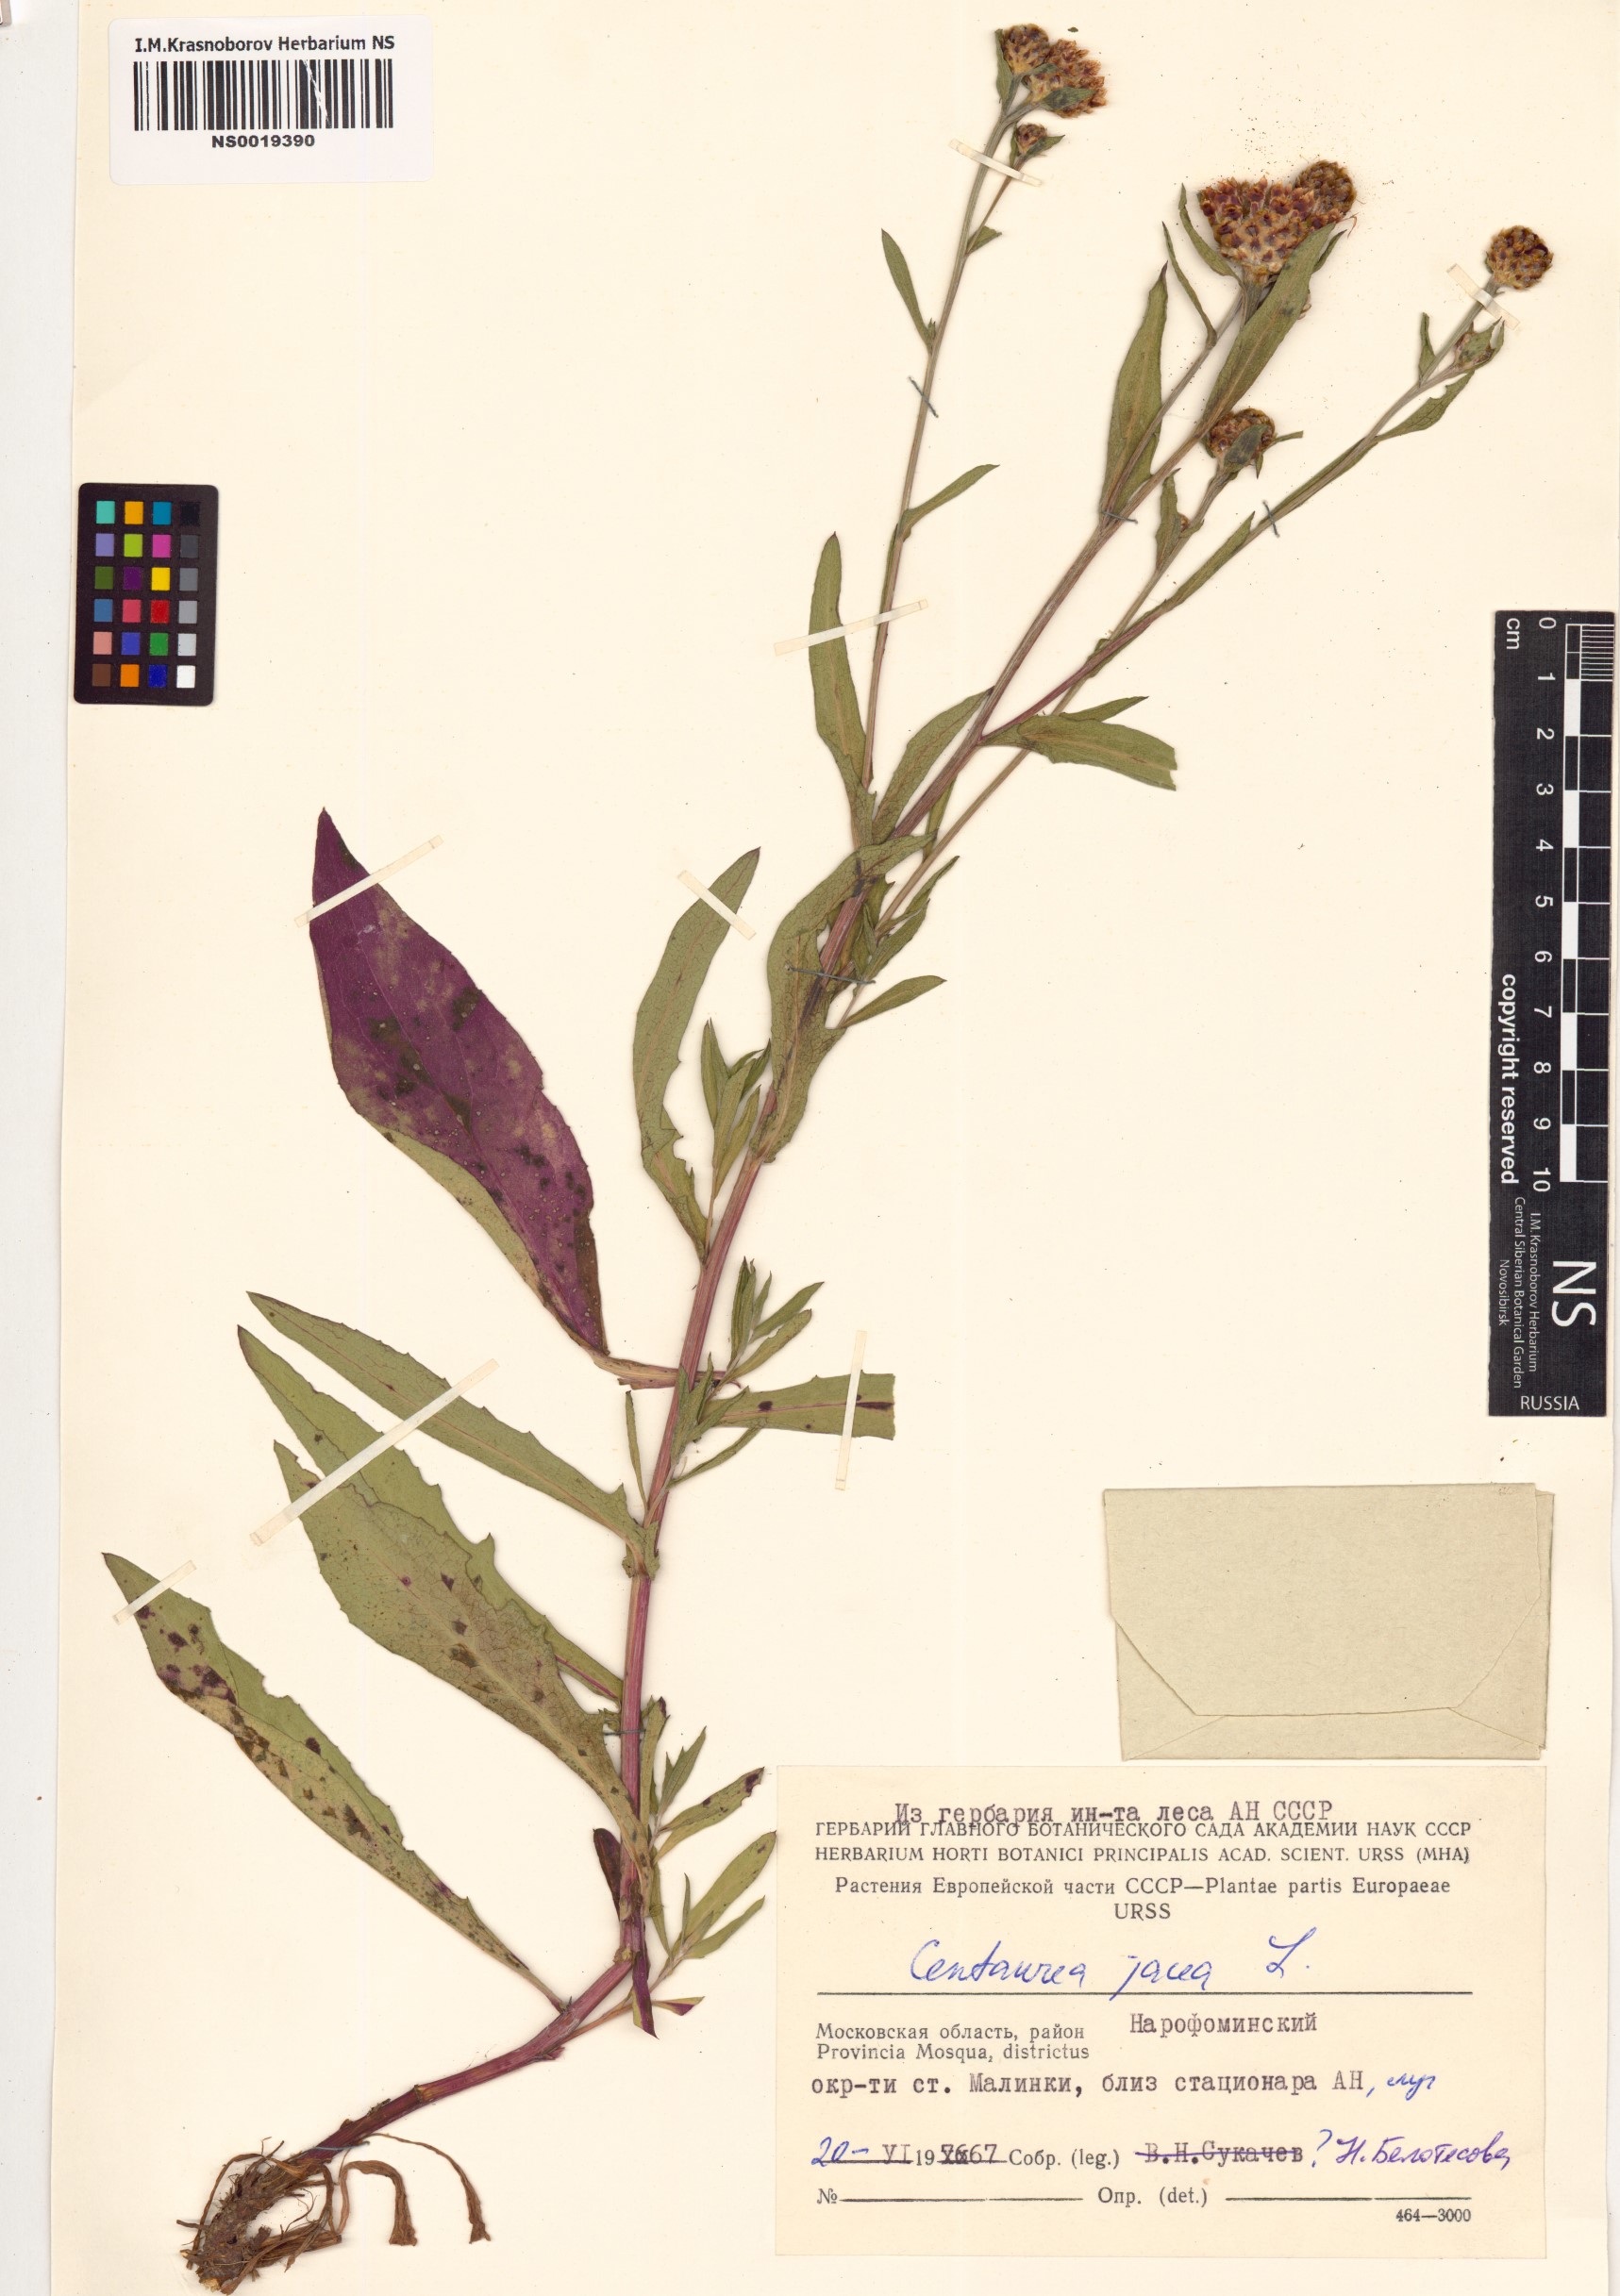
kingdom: Plantae
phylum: Tracheophyta
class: Magnoliopsida
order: Asterales
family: Asteraceae
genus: Centaurea
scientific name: Centaurea jacea
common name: Brown knapweed
